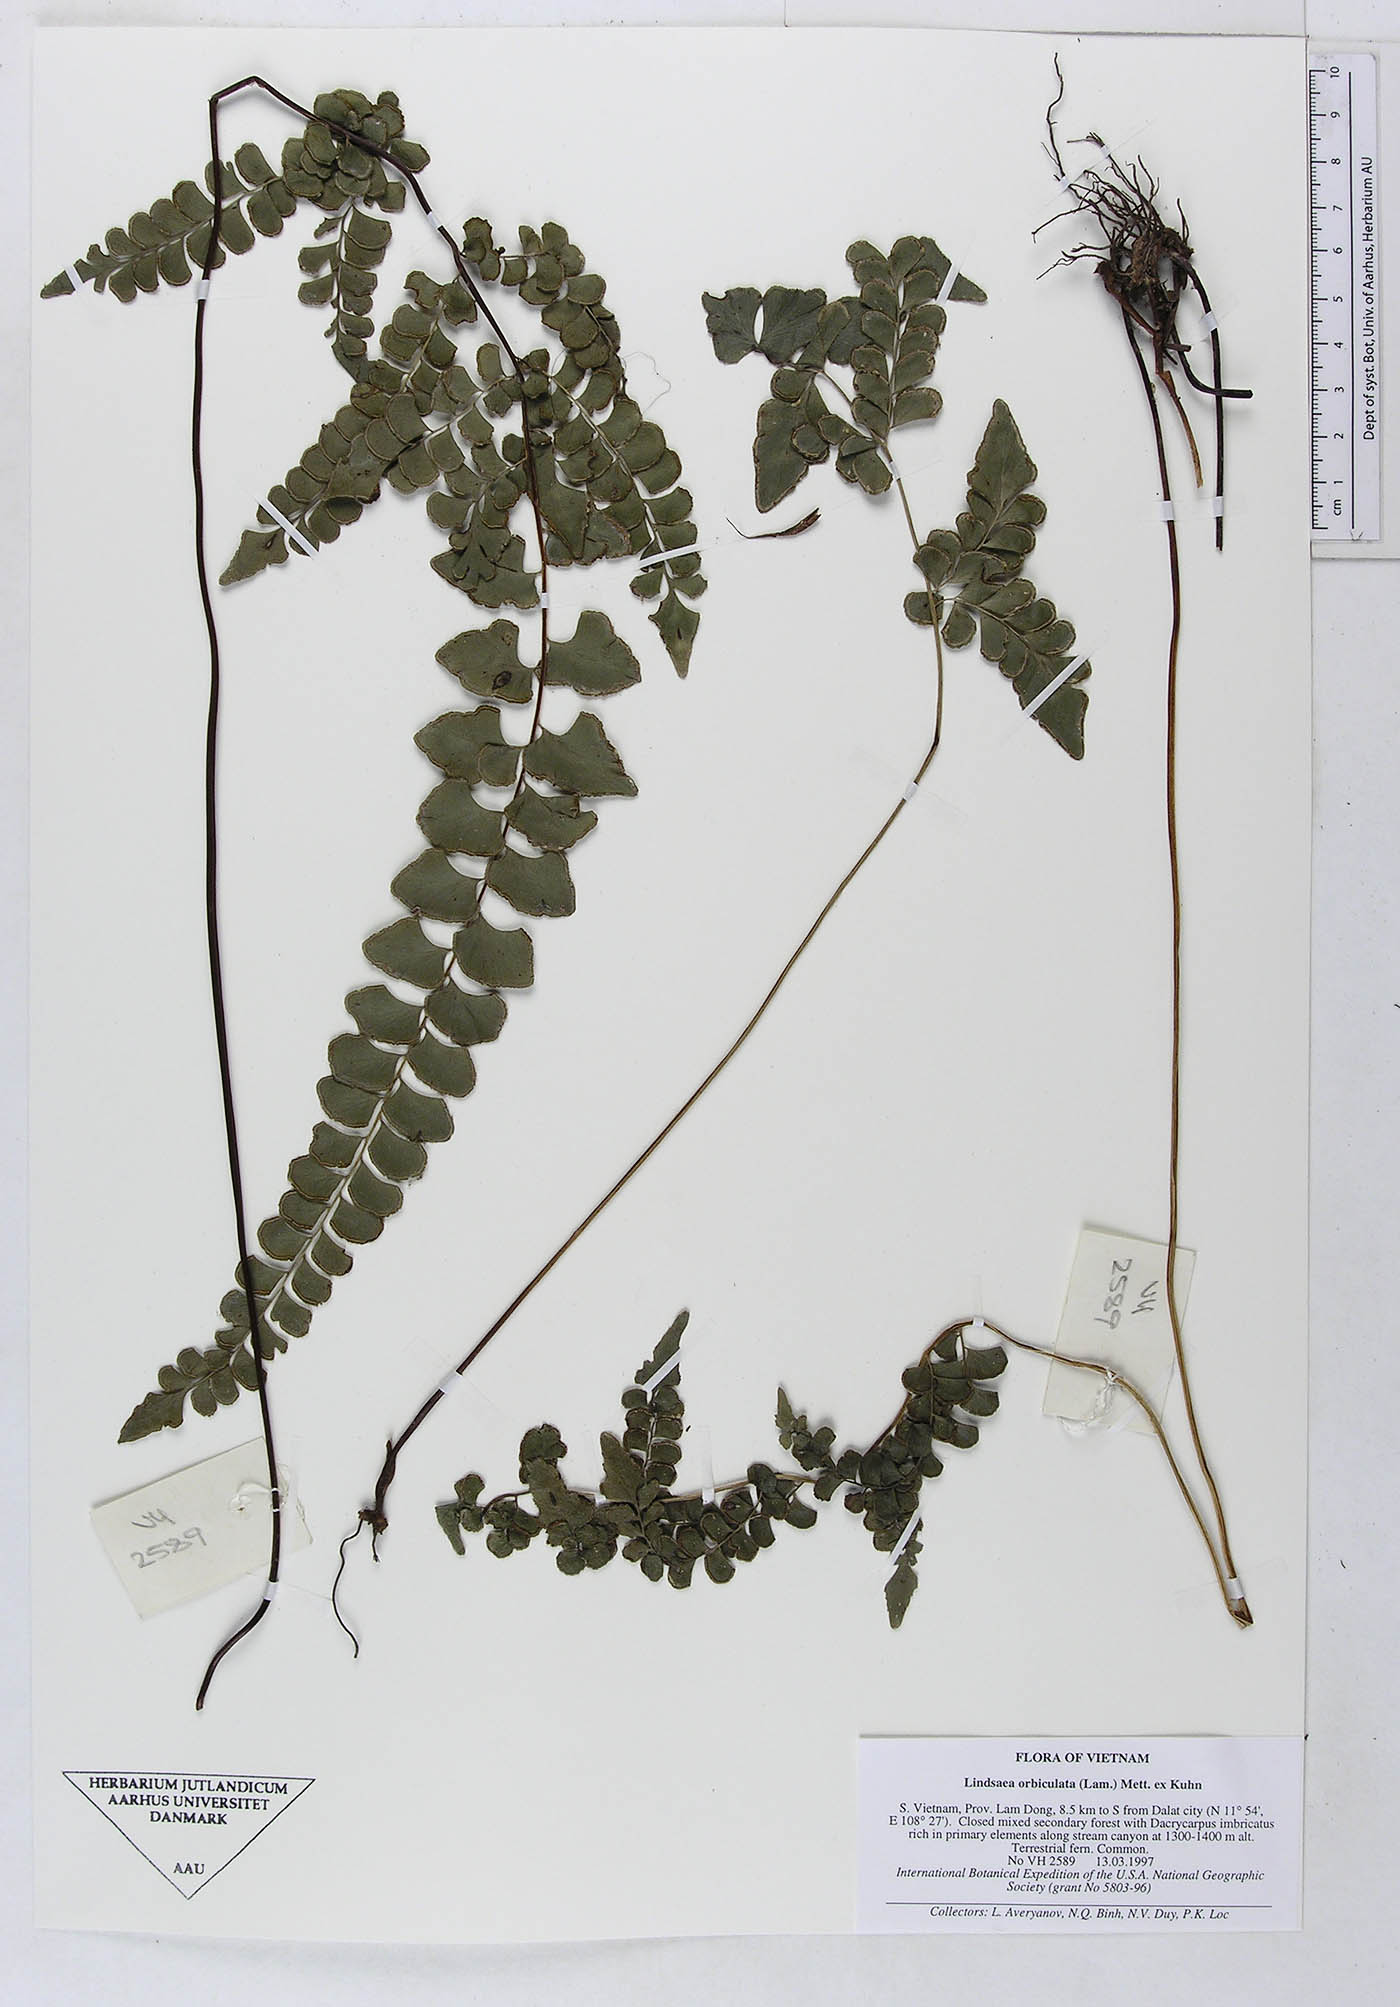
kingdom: Plantae
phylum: Tracheophyta
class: Polypodiopsida
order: Polypodiales
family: Lindsaeaceae
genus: Lindsaea
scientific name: Lindsaea orbiculata
